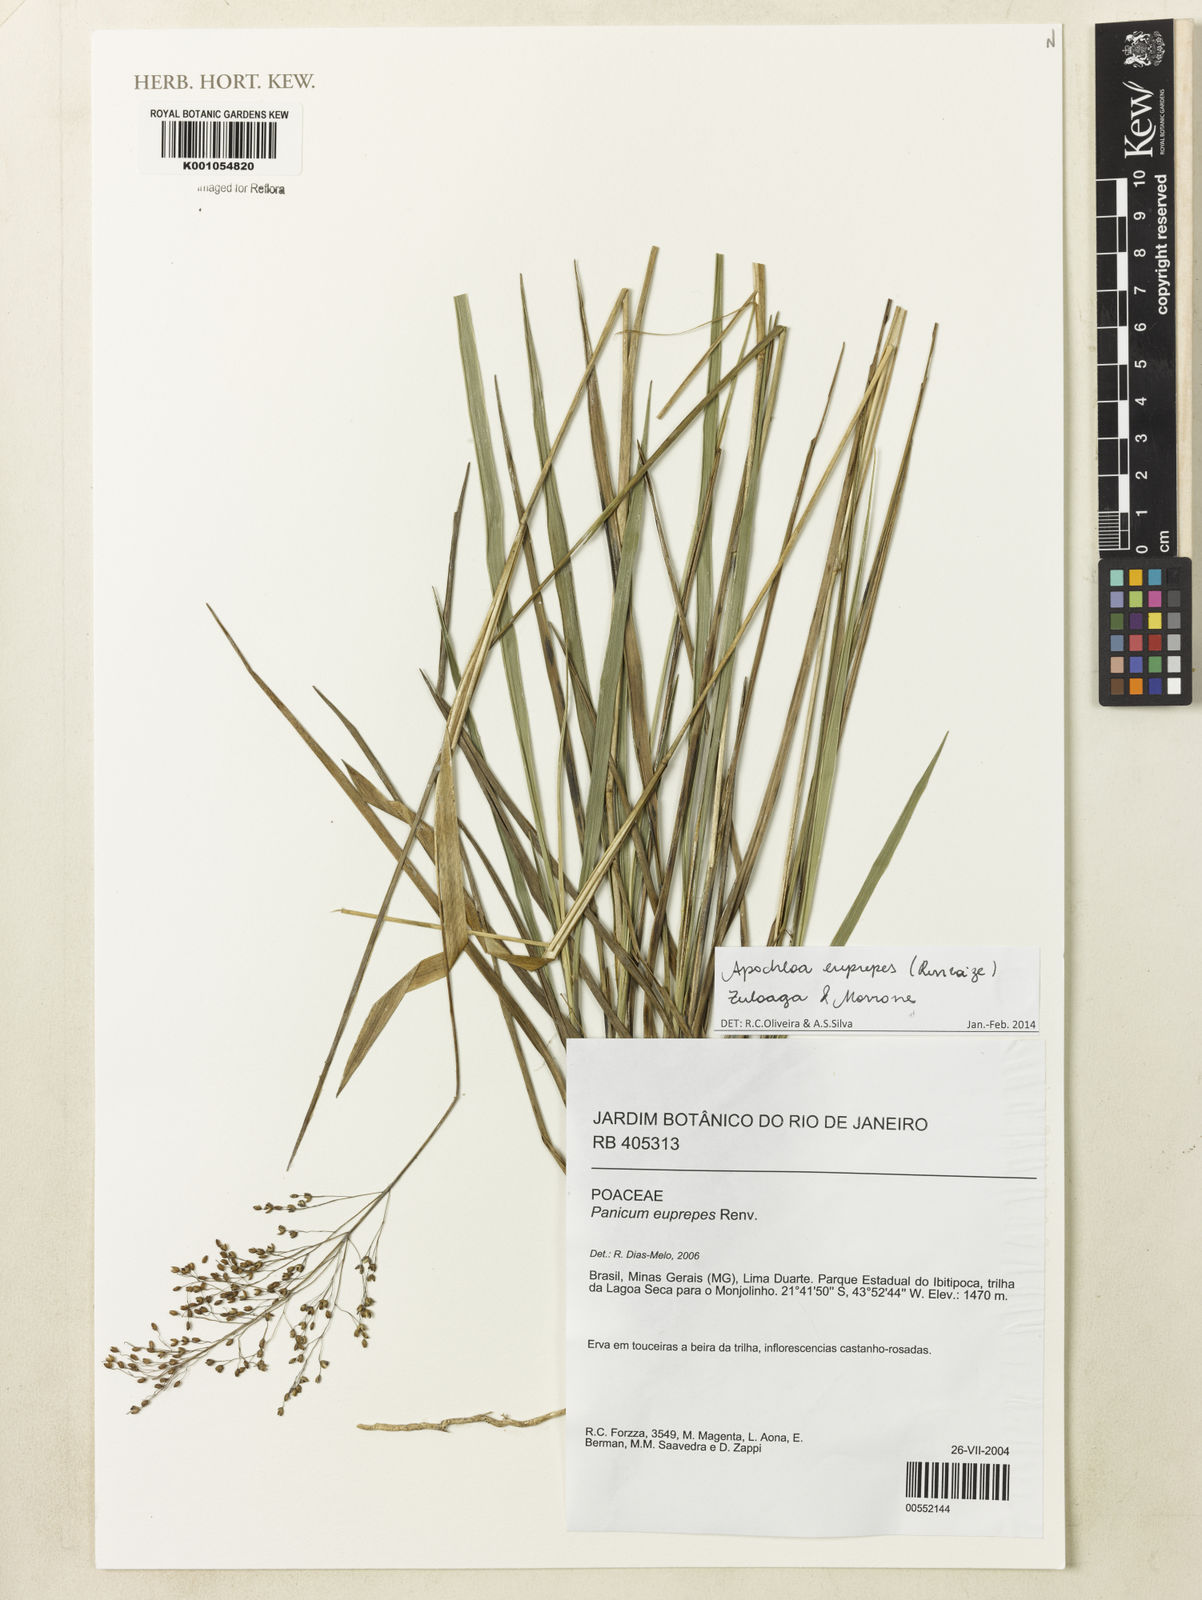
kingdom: Plantae
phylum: Tracheophyta
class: Liliopsida
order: Poales
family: Poaceae
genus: Apochloa
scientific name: Apochloa euprepes
